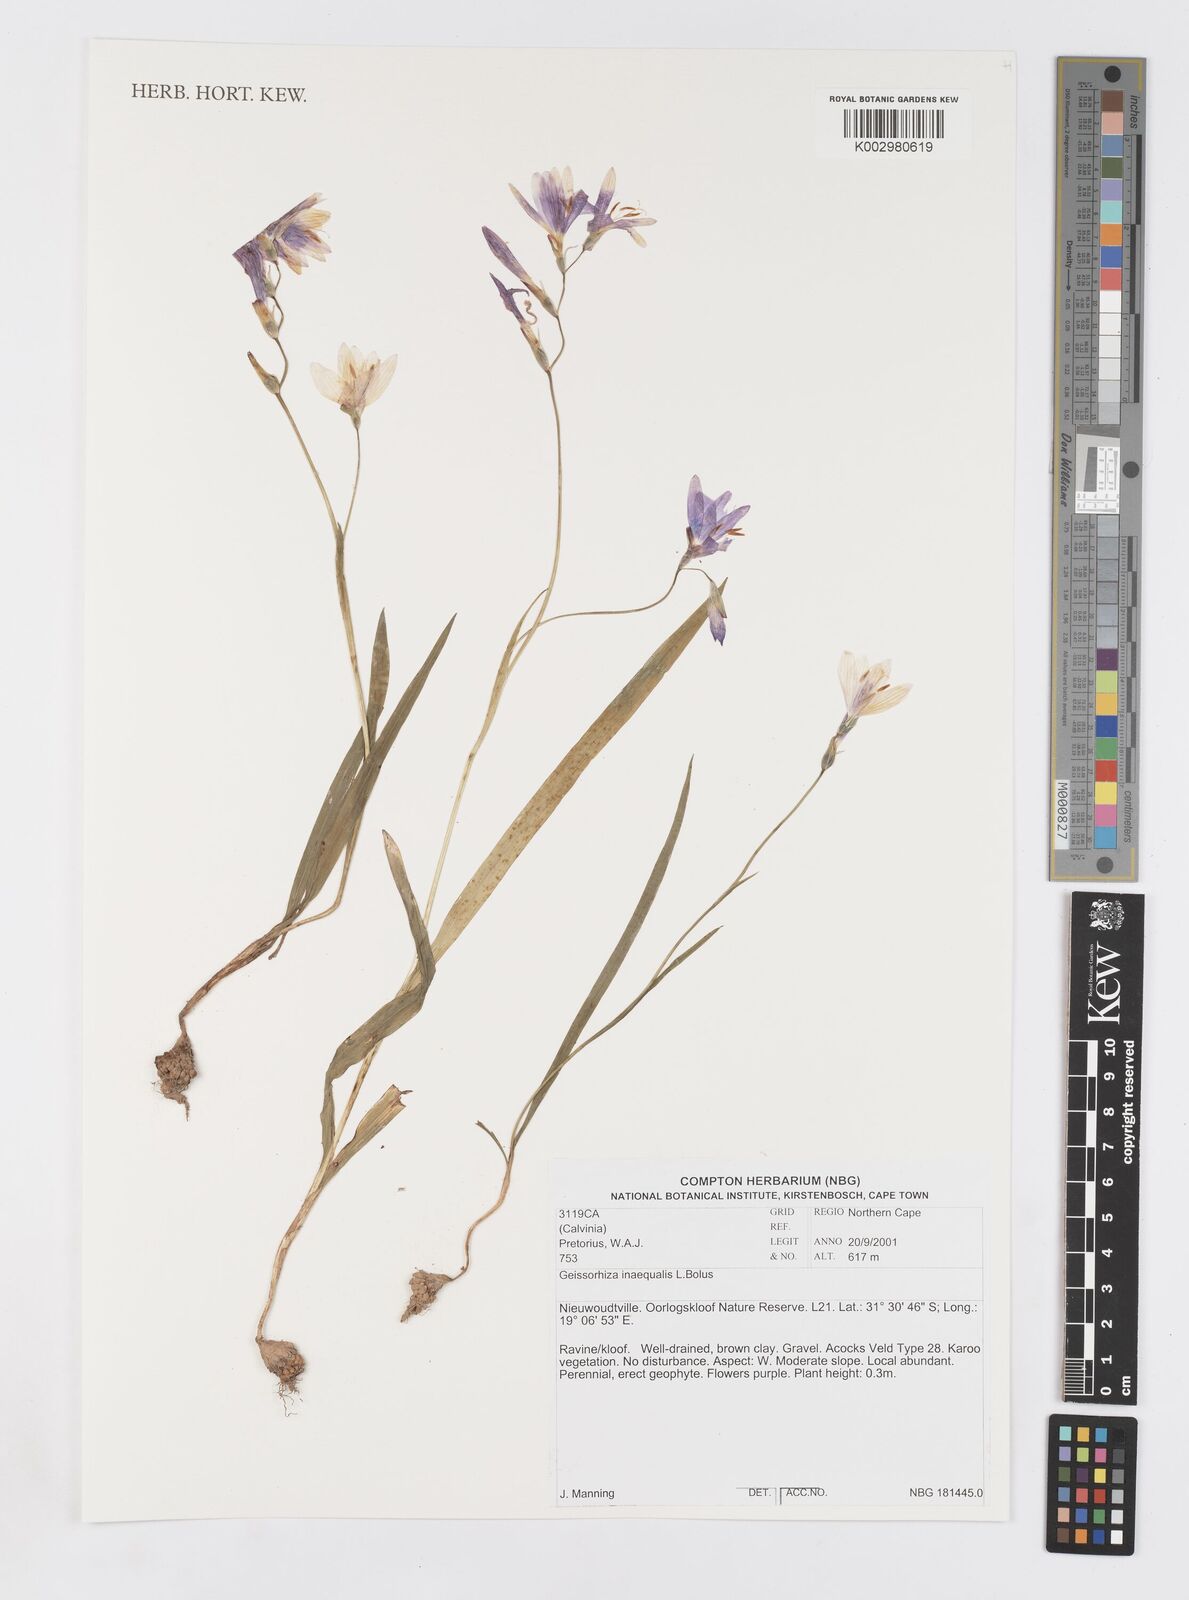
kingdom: Plantae
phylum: Tracheophyta
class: Liliopsida
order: Asparagales
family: Iridaceae
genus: Geissorhiza
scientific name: Geissorhiza inaequalis
